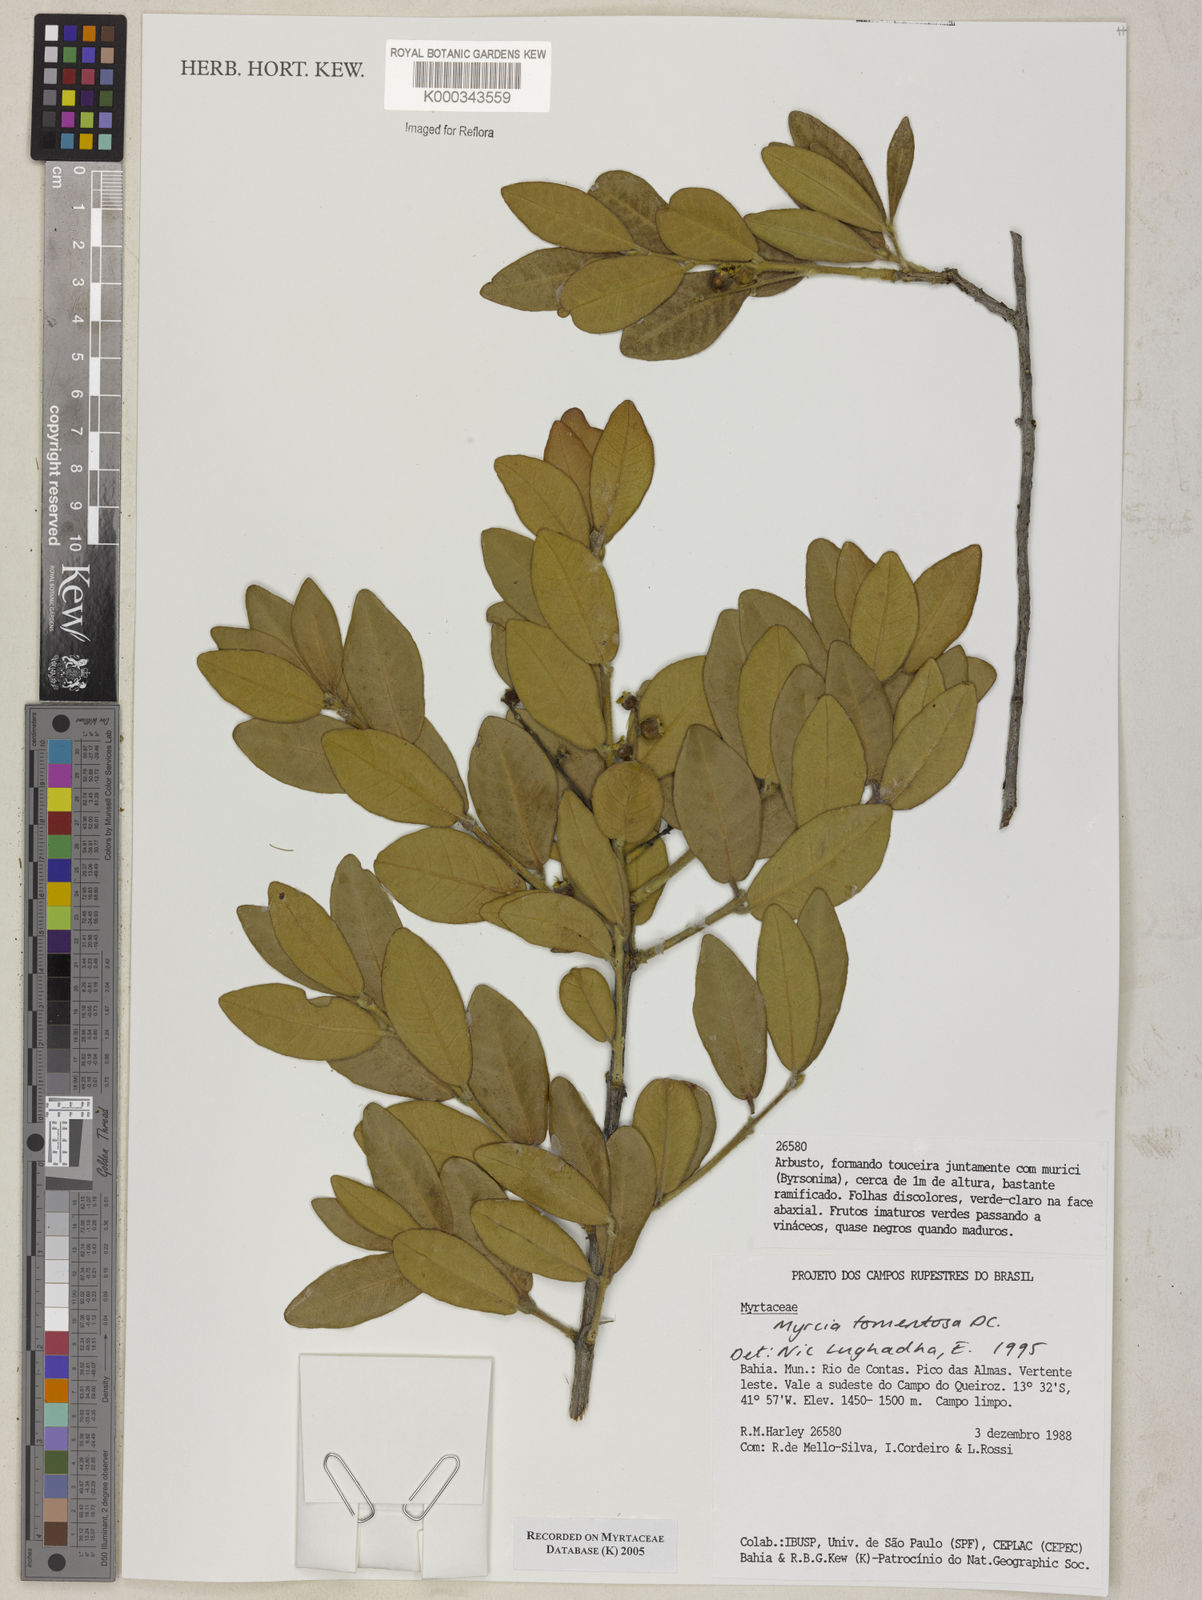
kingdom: Plantae
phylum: Tracheophyta
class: Magnoliopsida
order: Myrtales
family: Myrtaceae
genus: Myrcia
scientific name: Myrcia tomentosa
